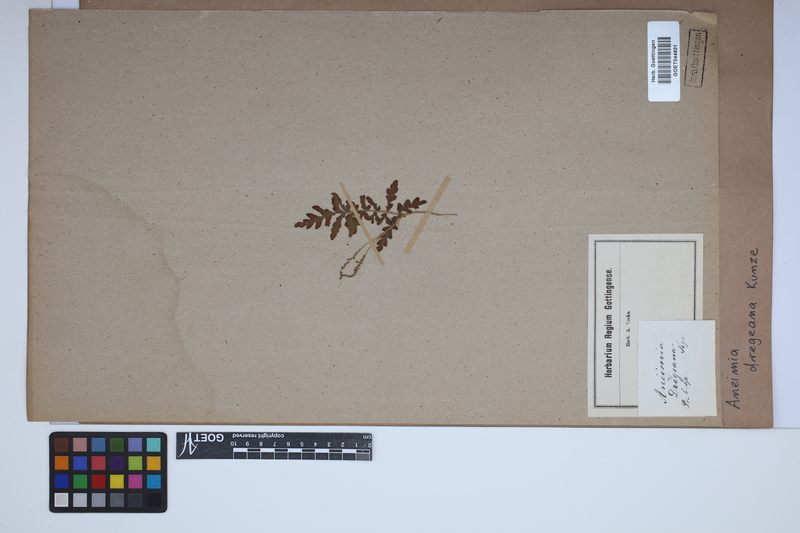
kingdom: Plantae
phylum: Tracheophyta
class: Polypodiopsida
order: Schizaeales
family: Anemiaceae
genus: Anemia
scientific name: Anemia dregeana
